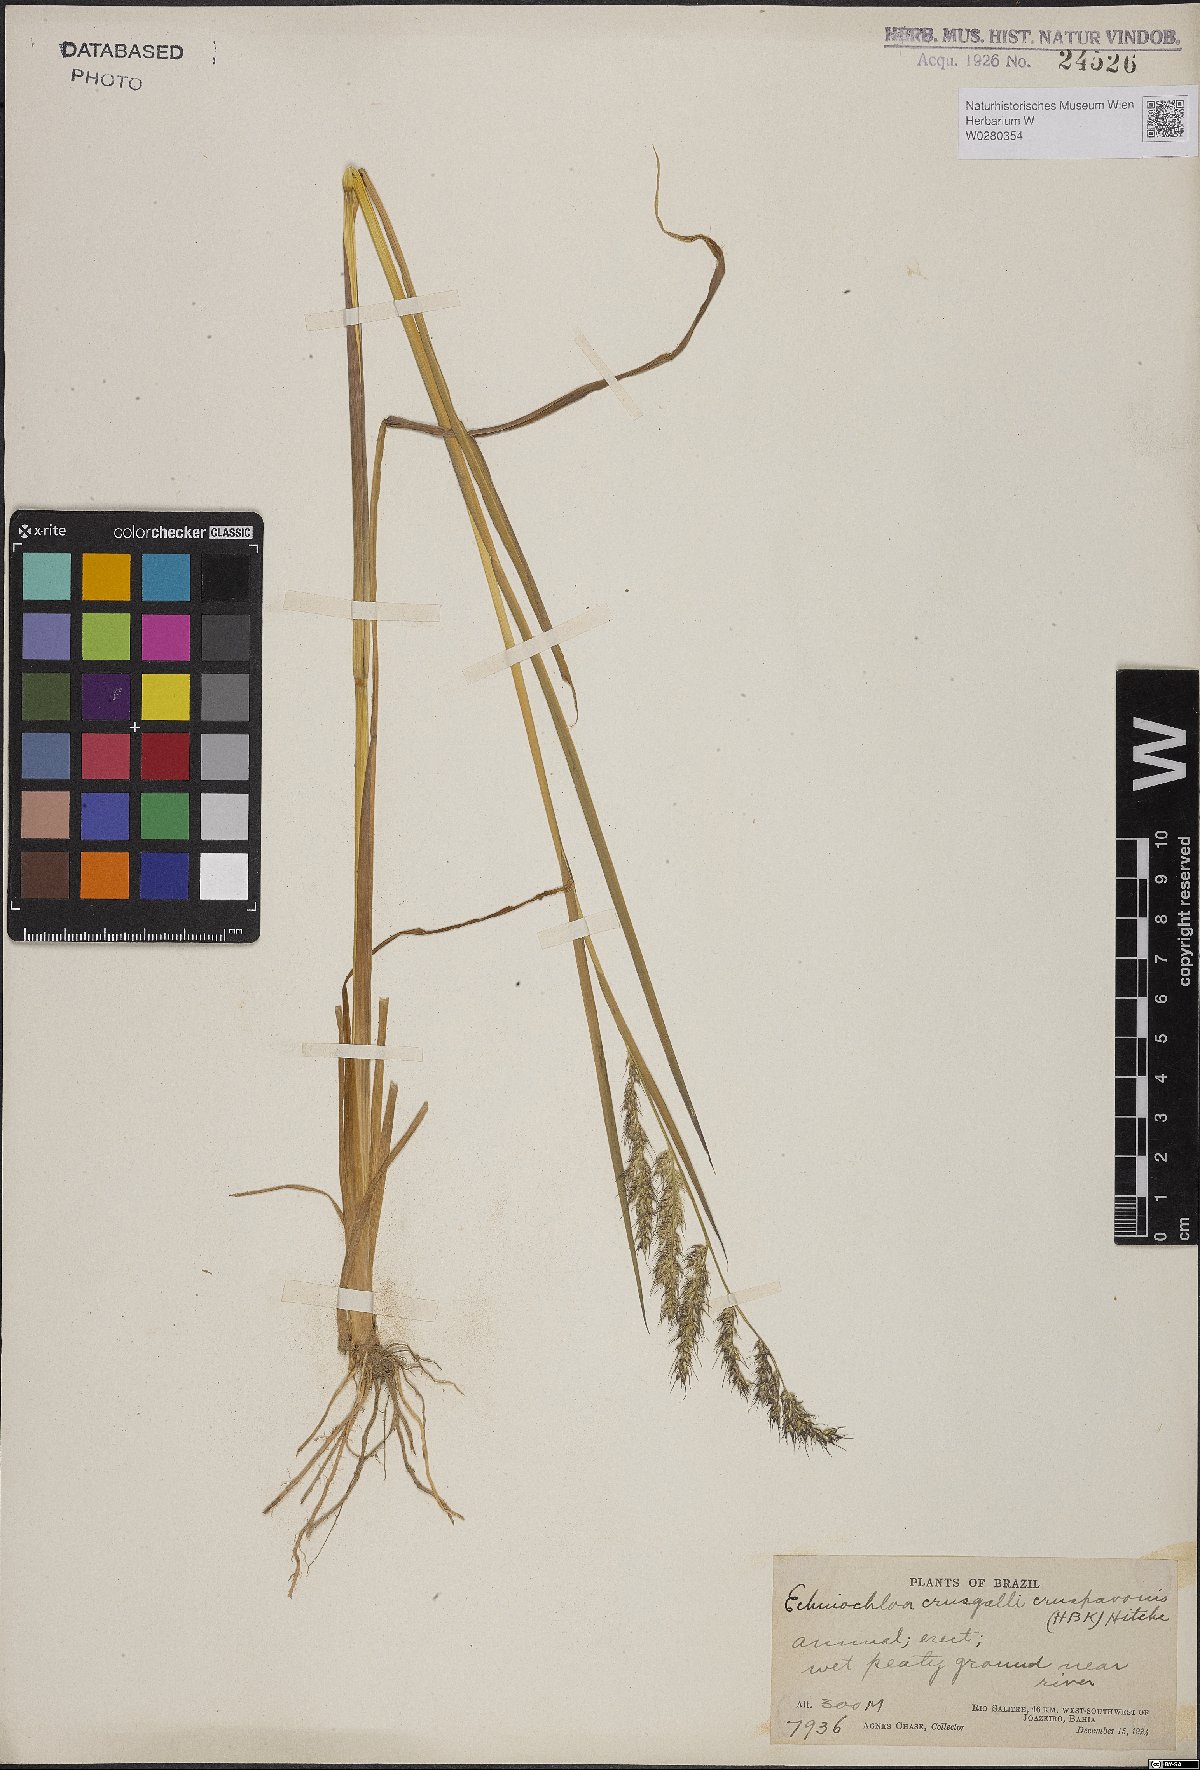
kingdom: Plantae
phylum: Tracheophyta
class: Liliopsida
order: Poales
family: Poaceae
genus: Echinochloa
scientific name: Echinochloa crus-pavonis
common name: Gulf cockspur grass
